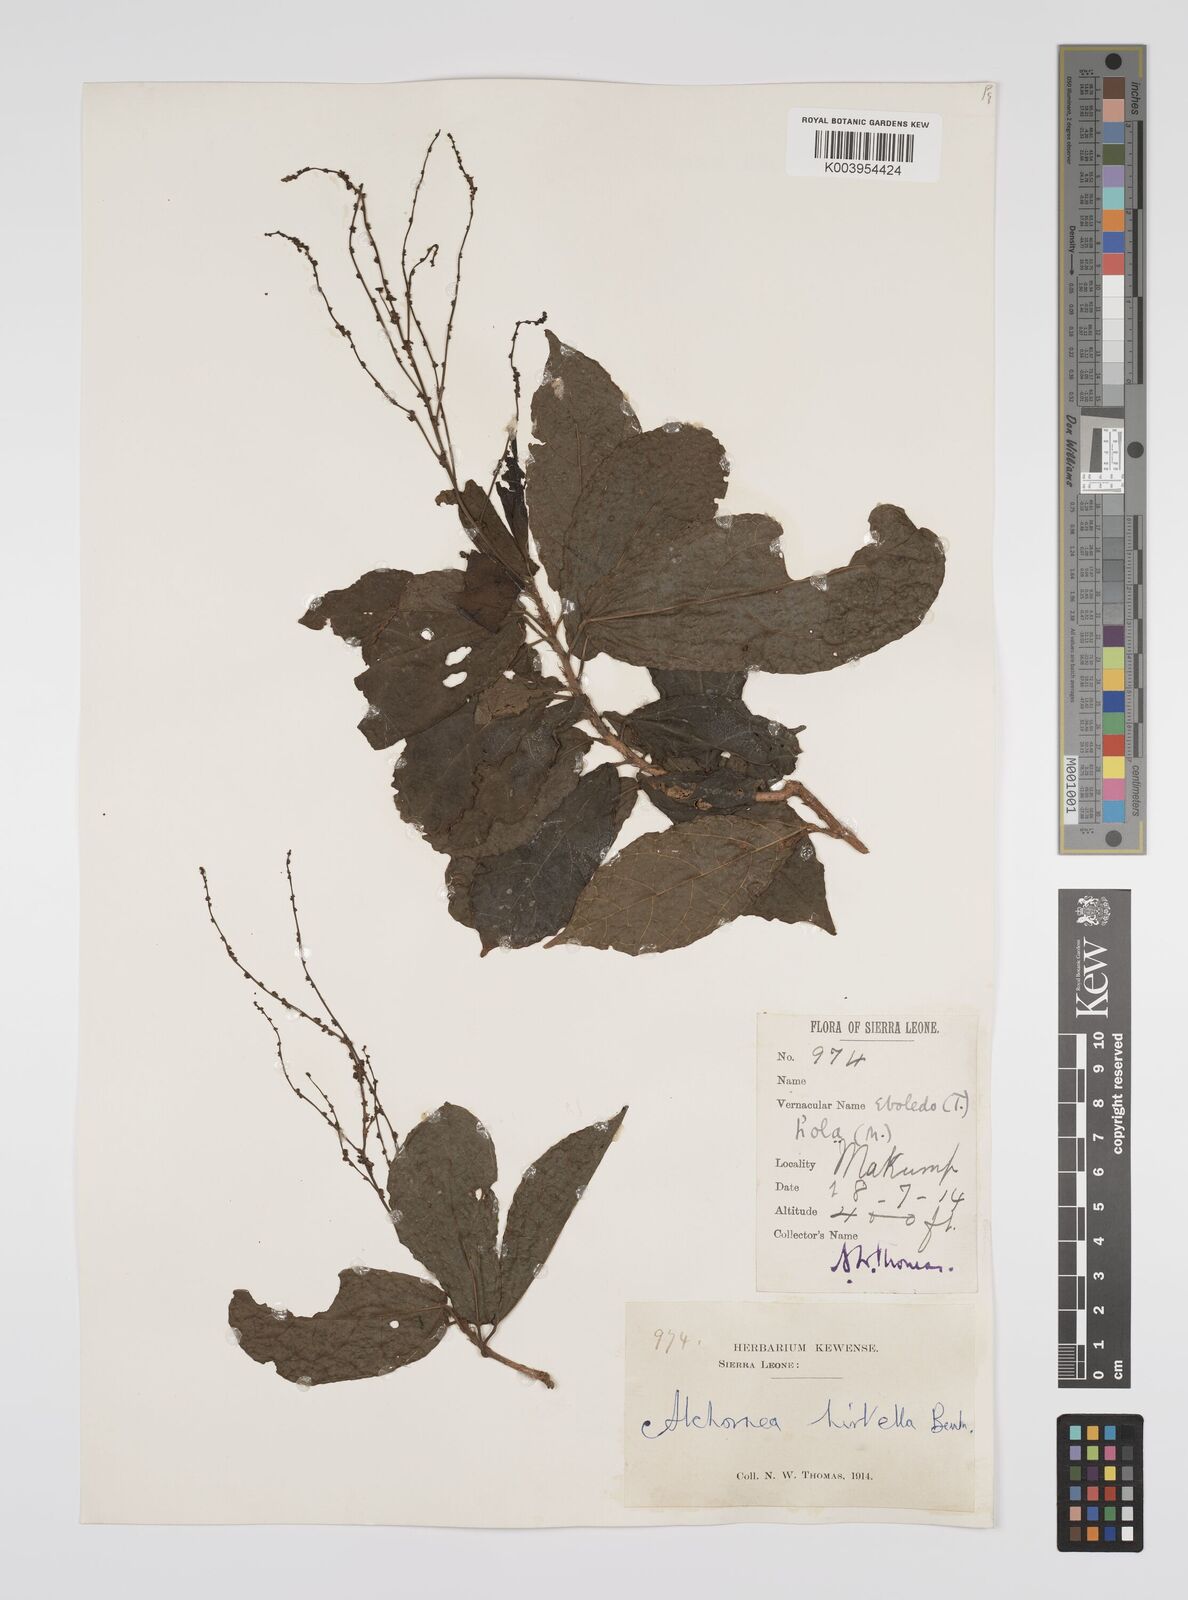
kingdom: Plantae
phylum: Tracheophyta
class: Magnoliopsida
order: Malpighiales
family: Euphorbiaceae
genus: Alchornea
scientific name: Alchornea hirtella
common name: Forest bead-string
